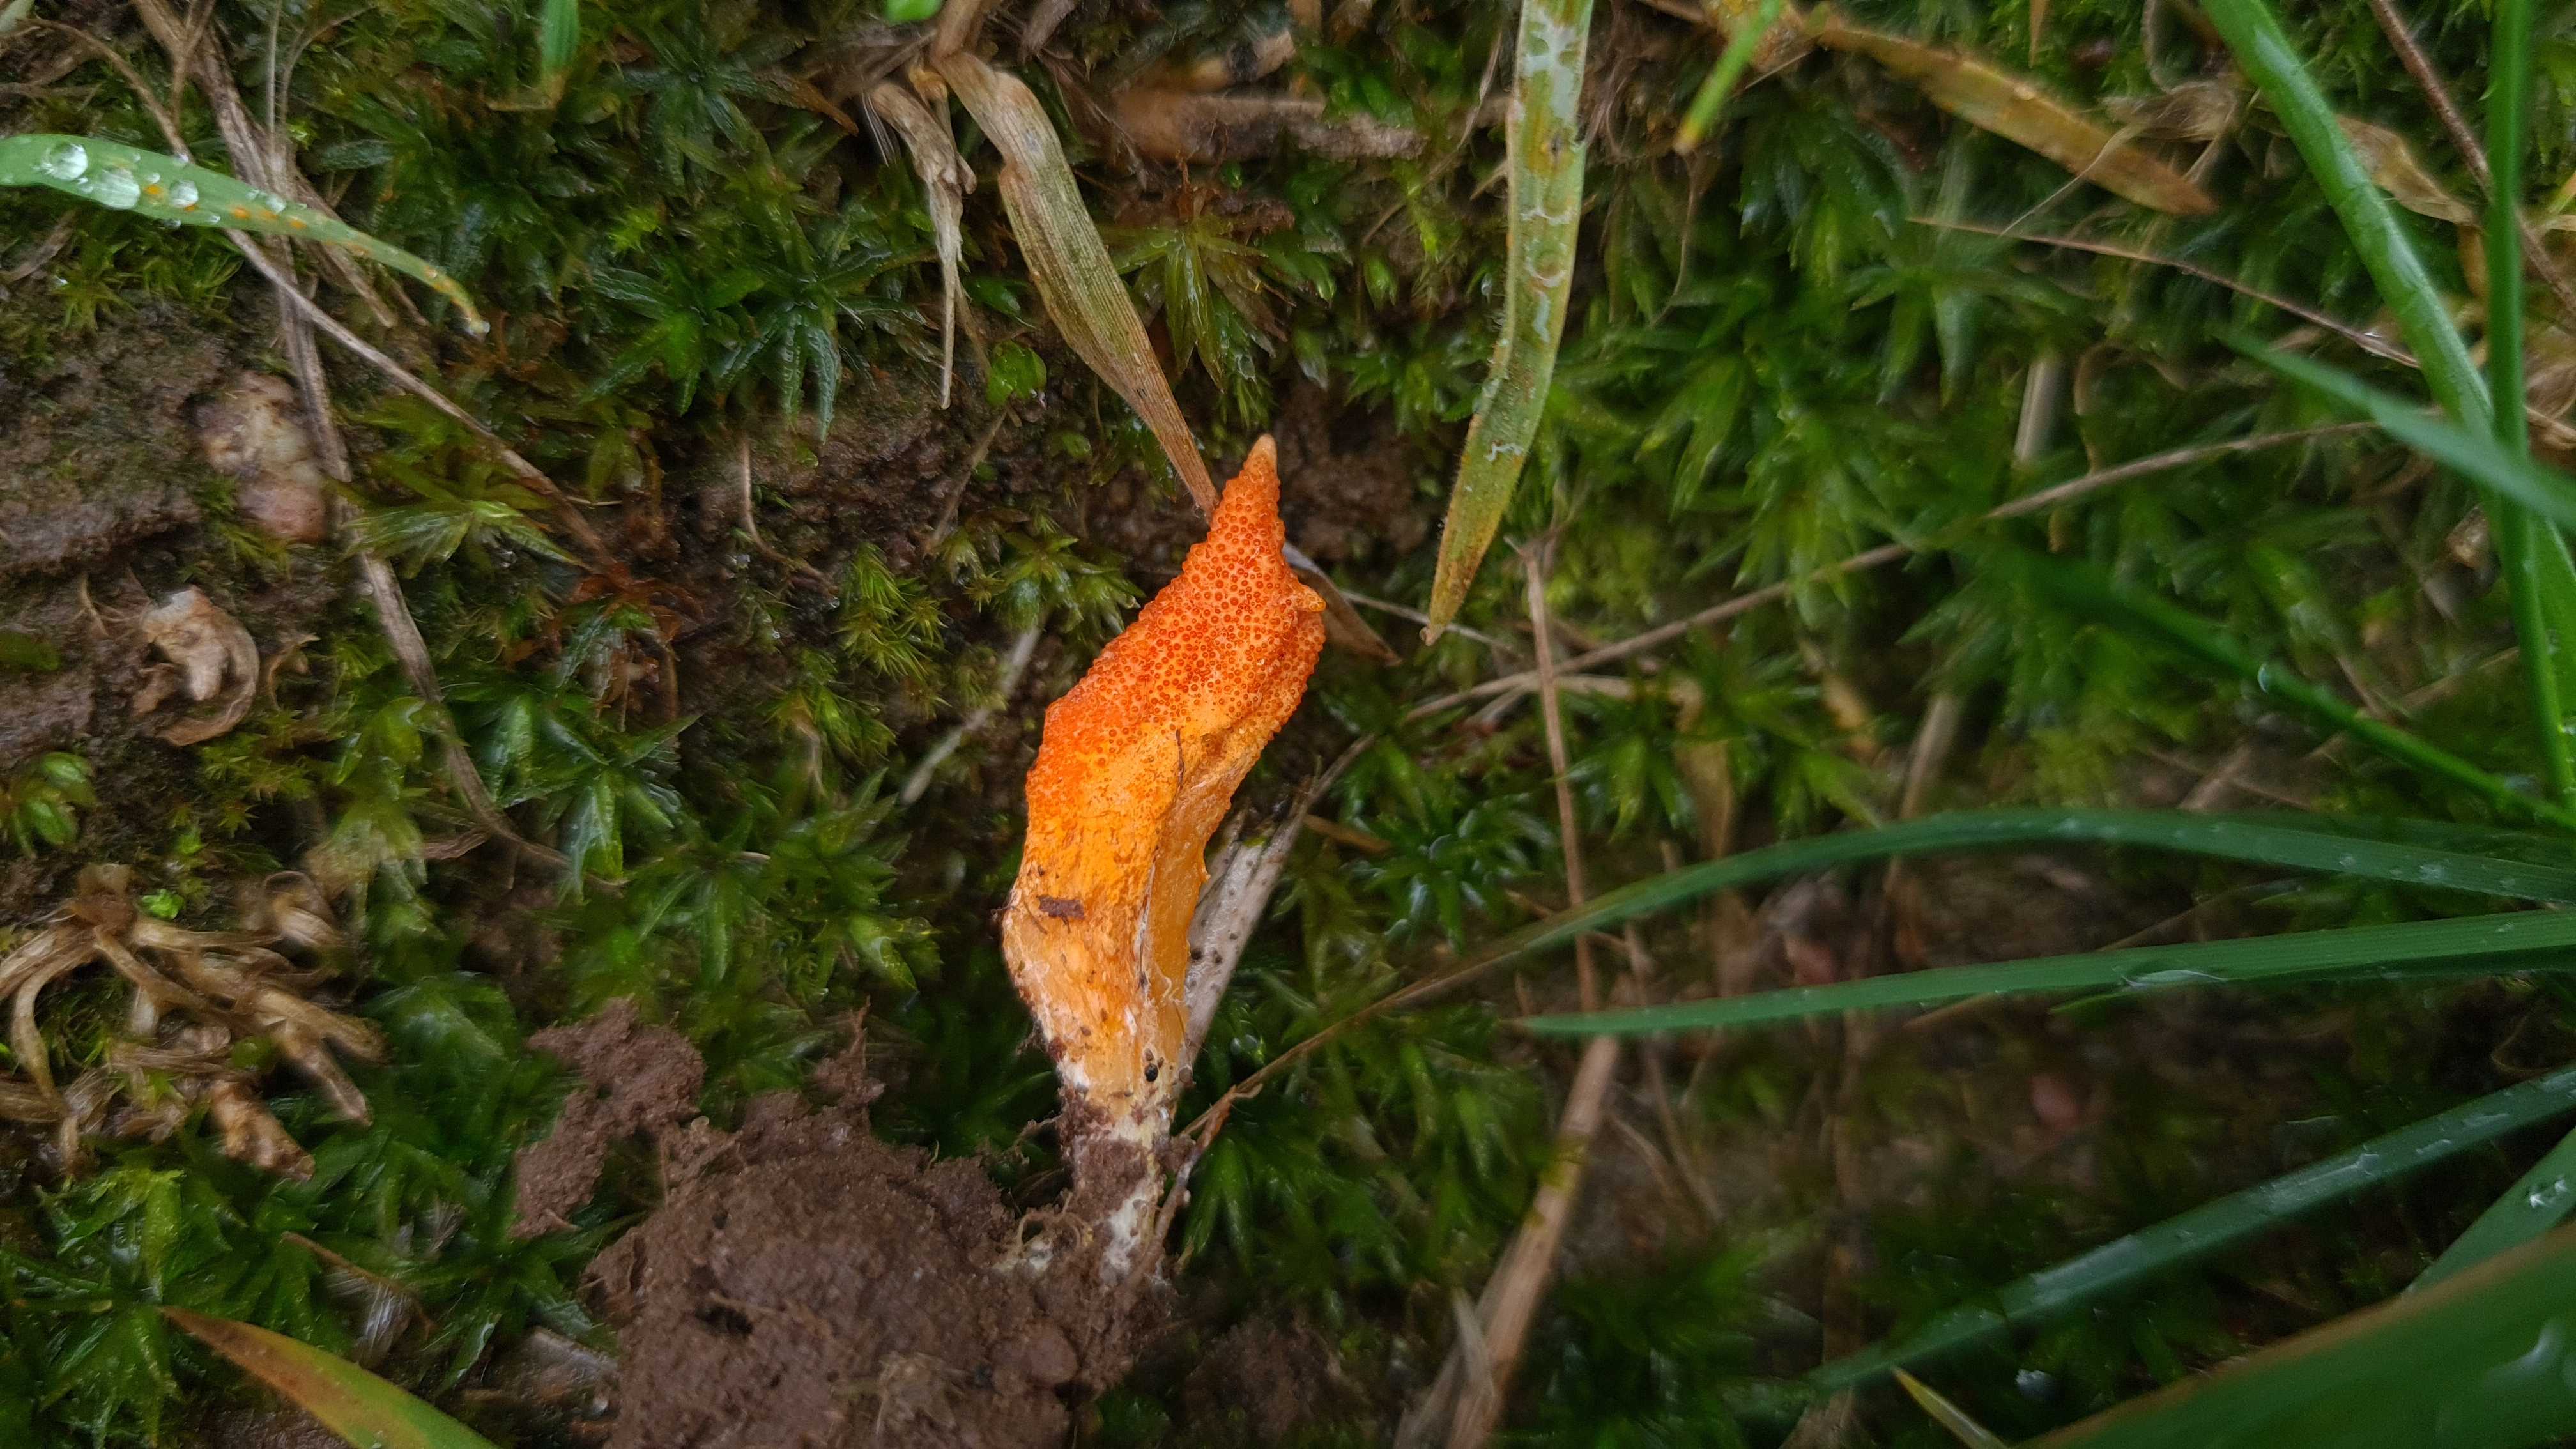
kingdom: Fungi
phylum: Ascomycota
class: Sordariomycetes
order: Hypocreales
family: Cordycipitaceae
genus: Cordyceps
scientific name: Cordyceps militaris
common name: puppe-snyltekølle
